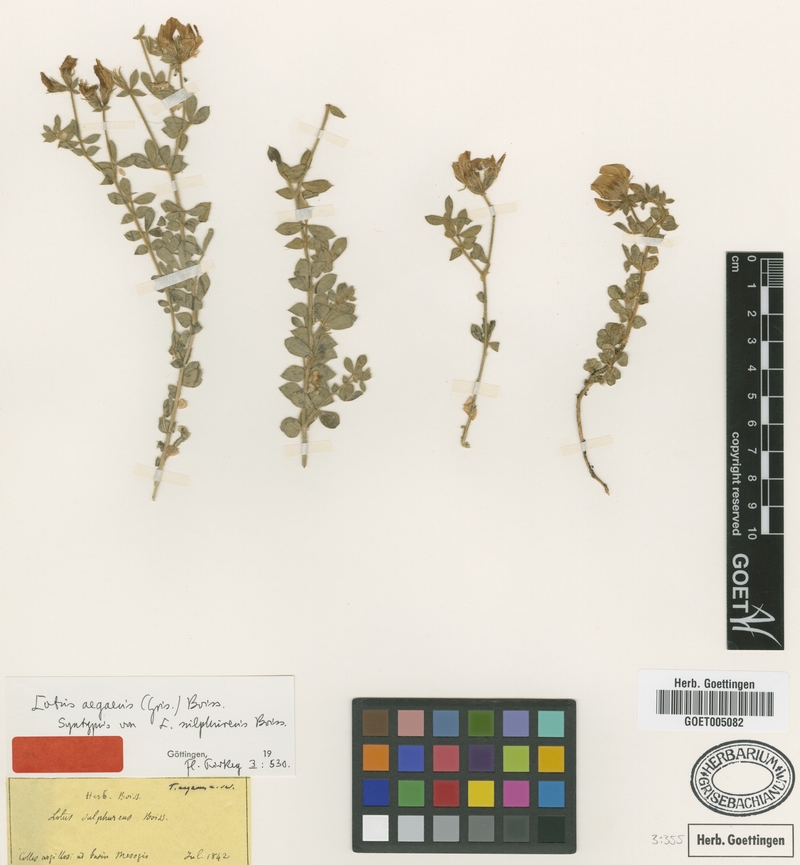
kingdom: Plantae
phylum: Tracheophyta
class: Magnoliopsida
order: Fabales
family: Fabaceae
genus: Lotus
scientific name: Lotus aegaeus
